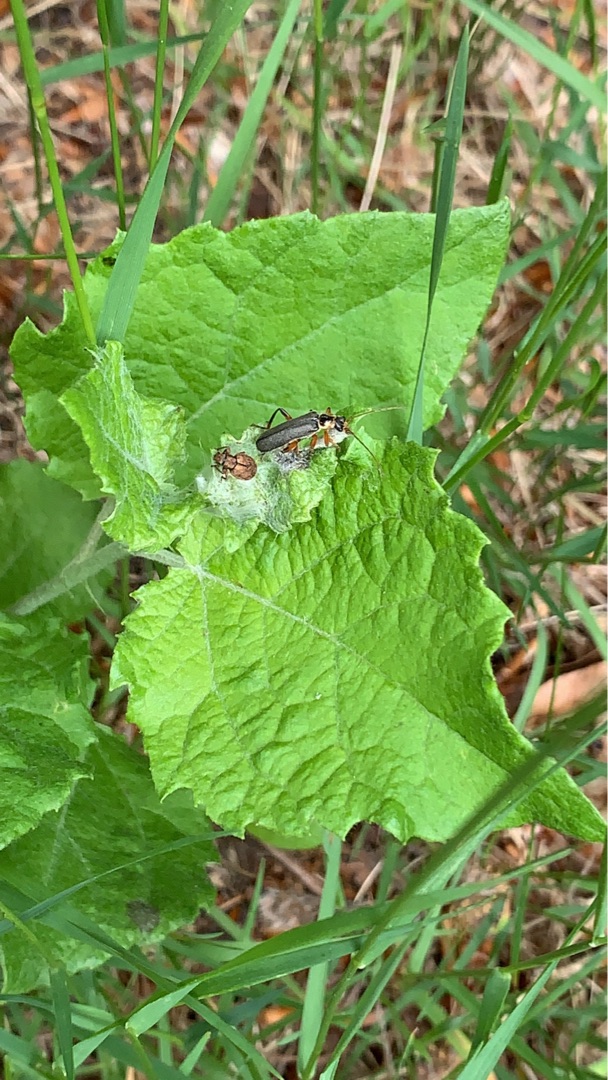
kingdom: Animalia
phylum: Arthropoda
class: Insecta
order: Coleoptera
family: Cantharidae
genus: Cantharis
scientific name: Cantharis nigricans
